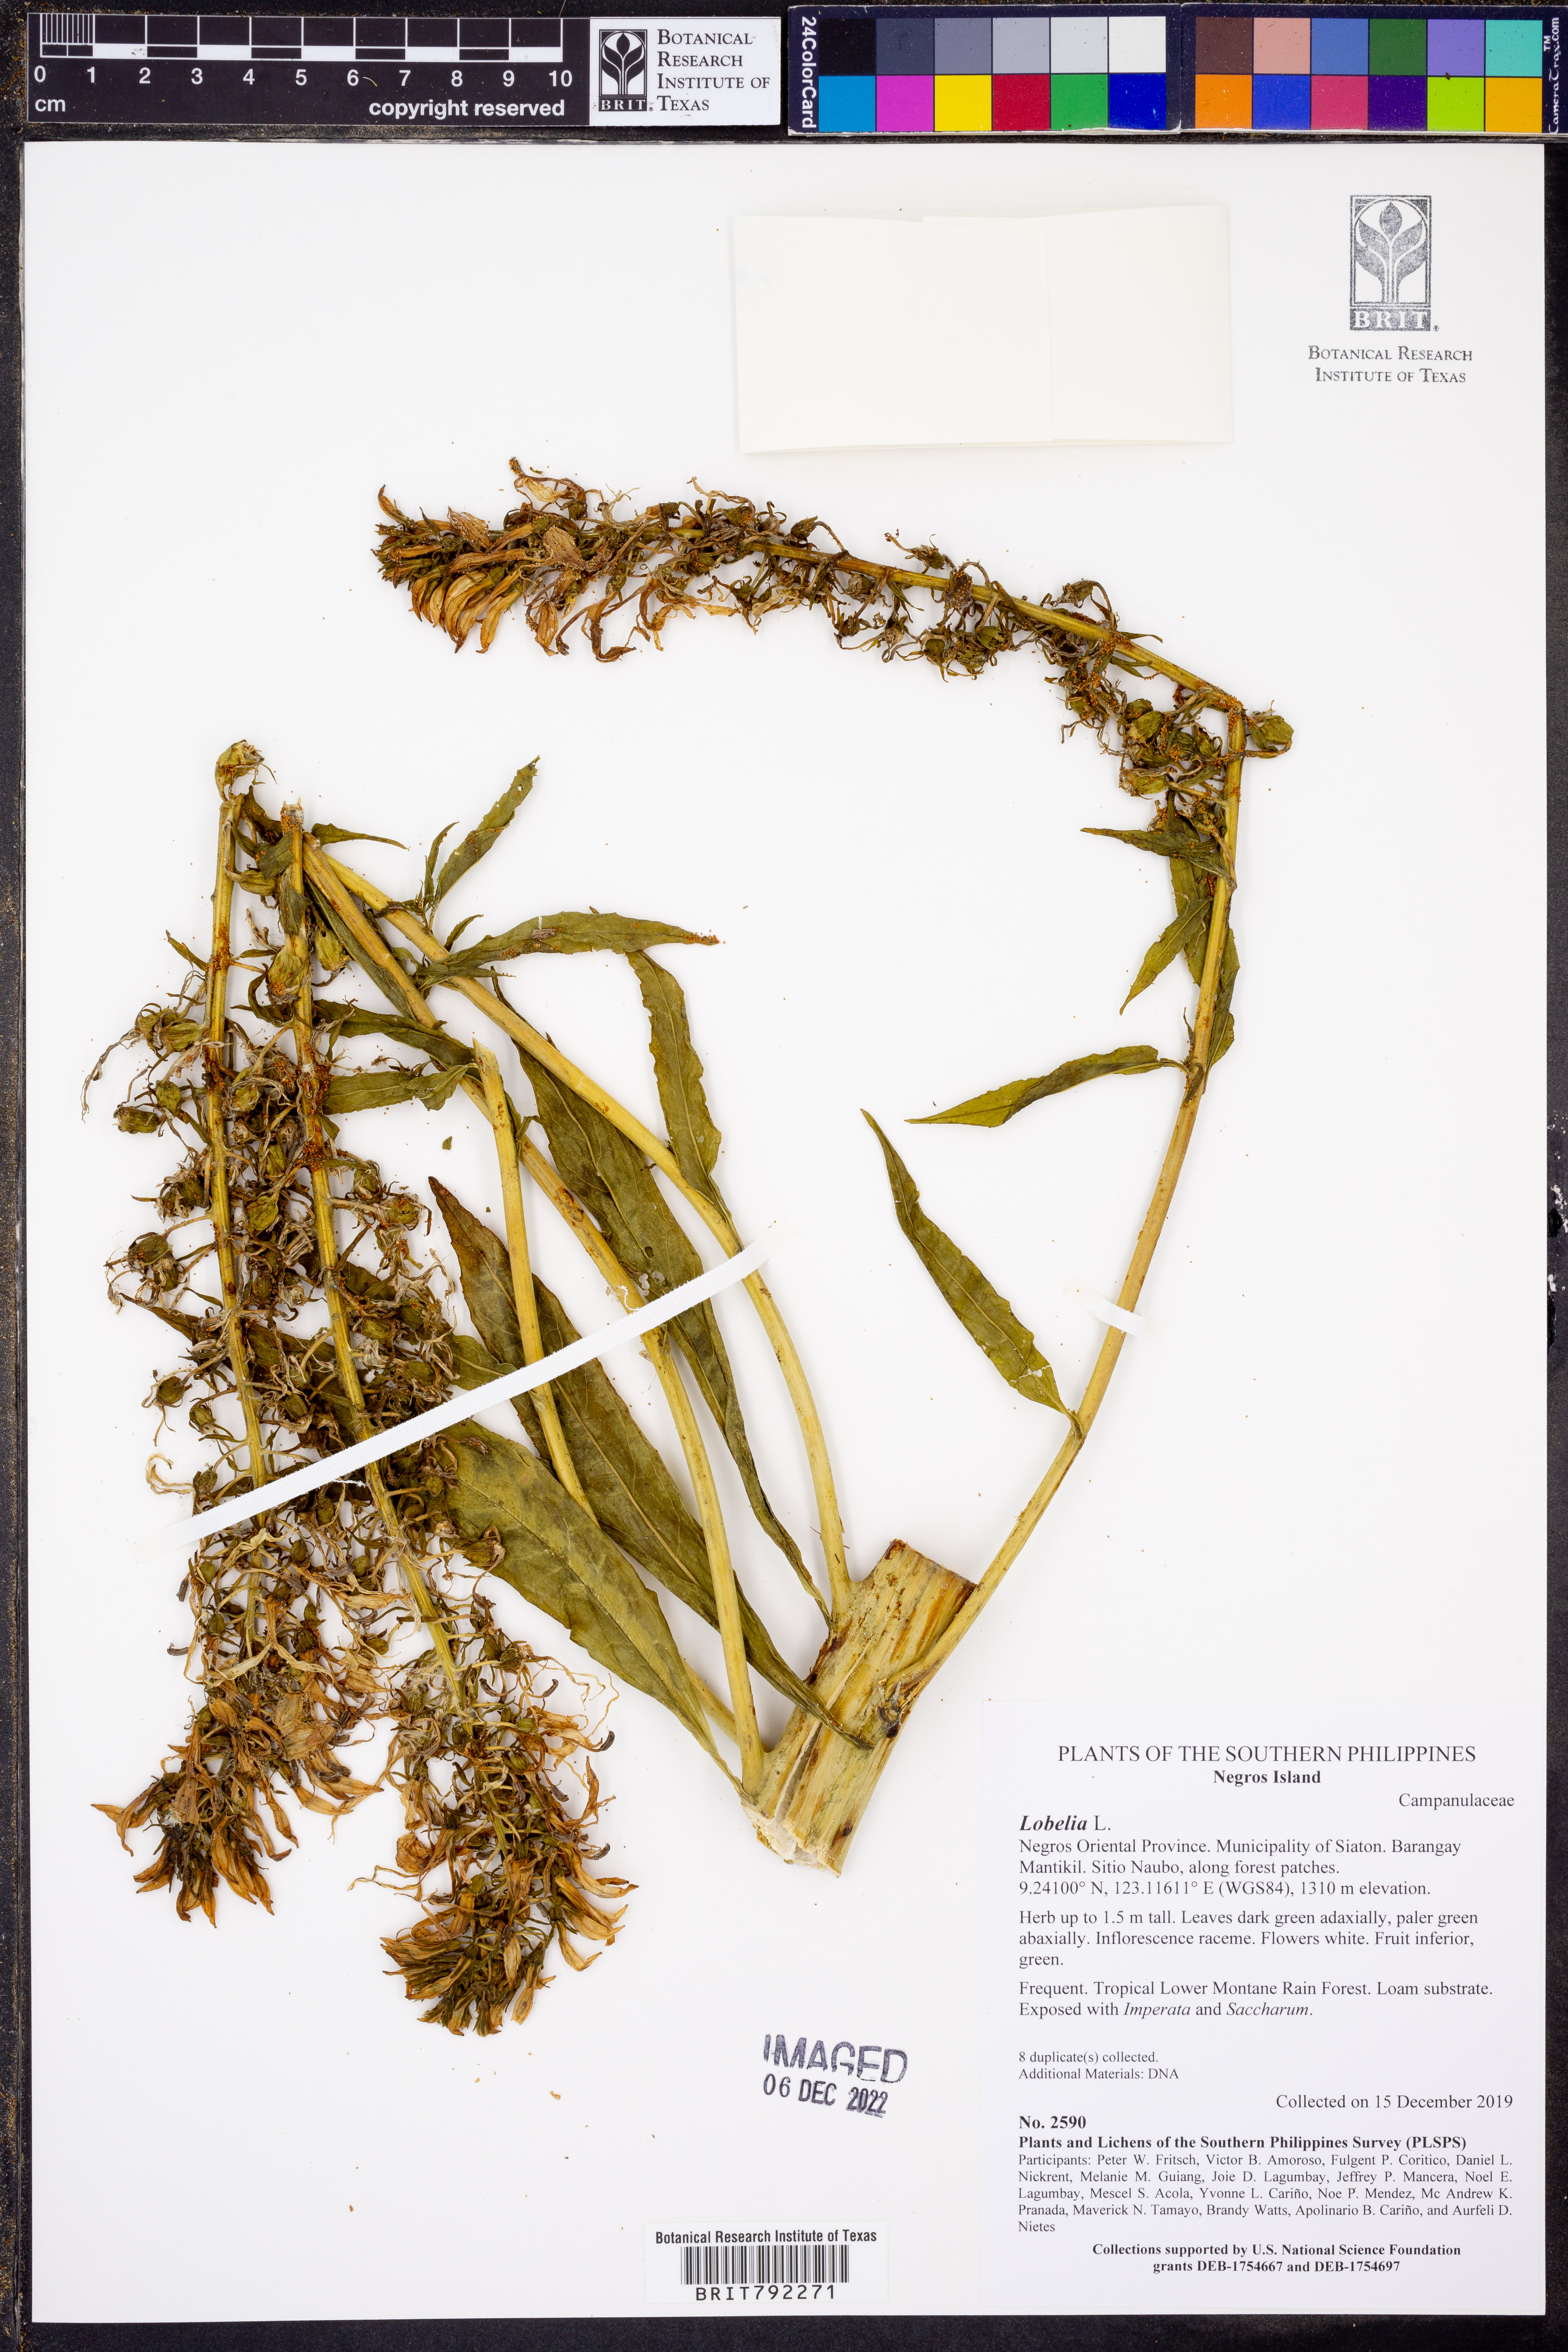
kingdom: Plantae
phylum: Tracheophyta
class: Magnoliopsida
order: Asterales
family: Campanulaceae
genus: Lobelia
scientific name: Lobelia
